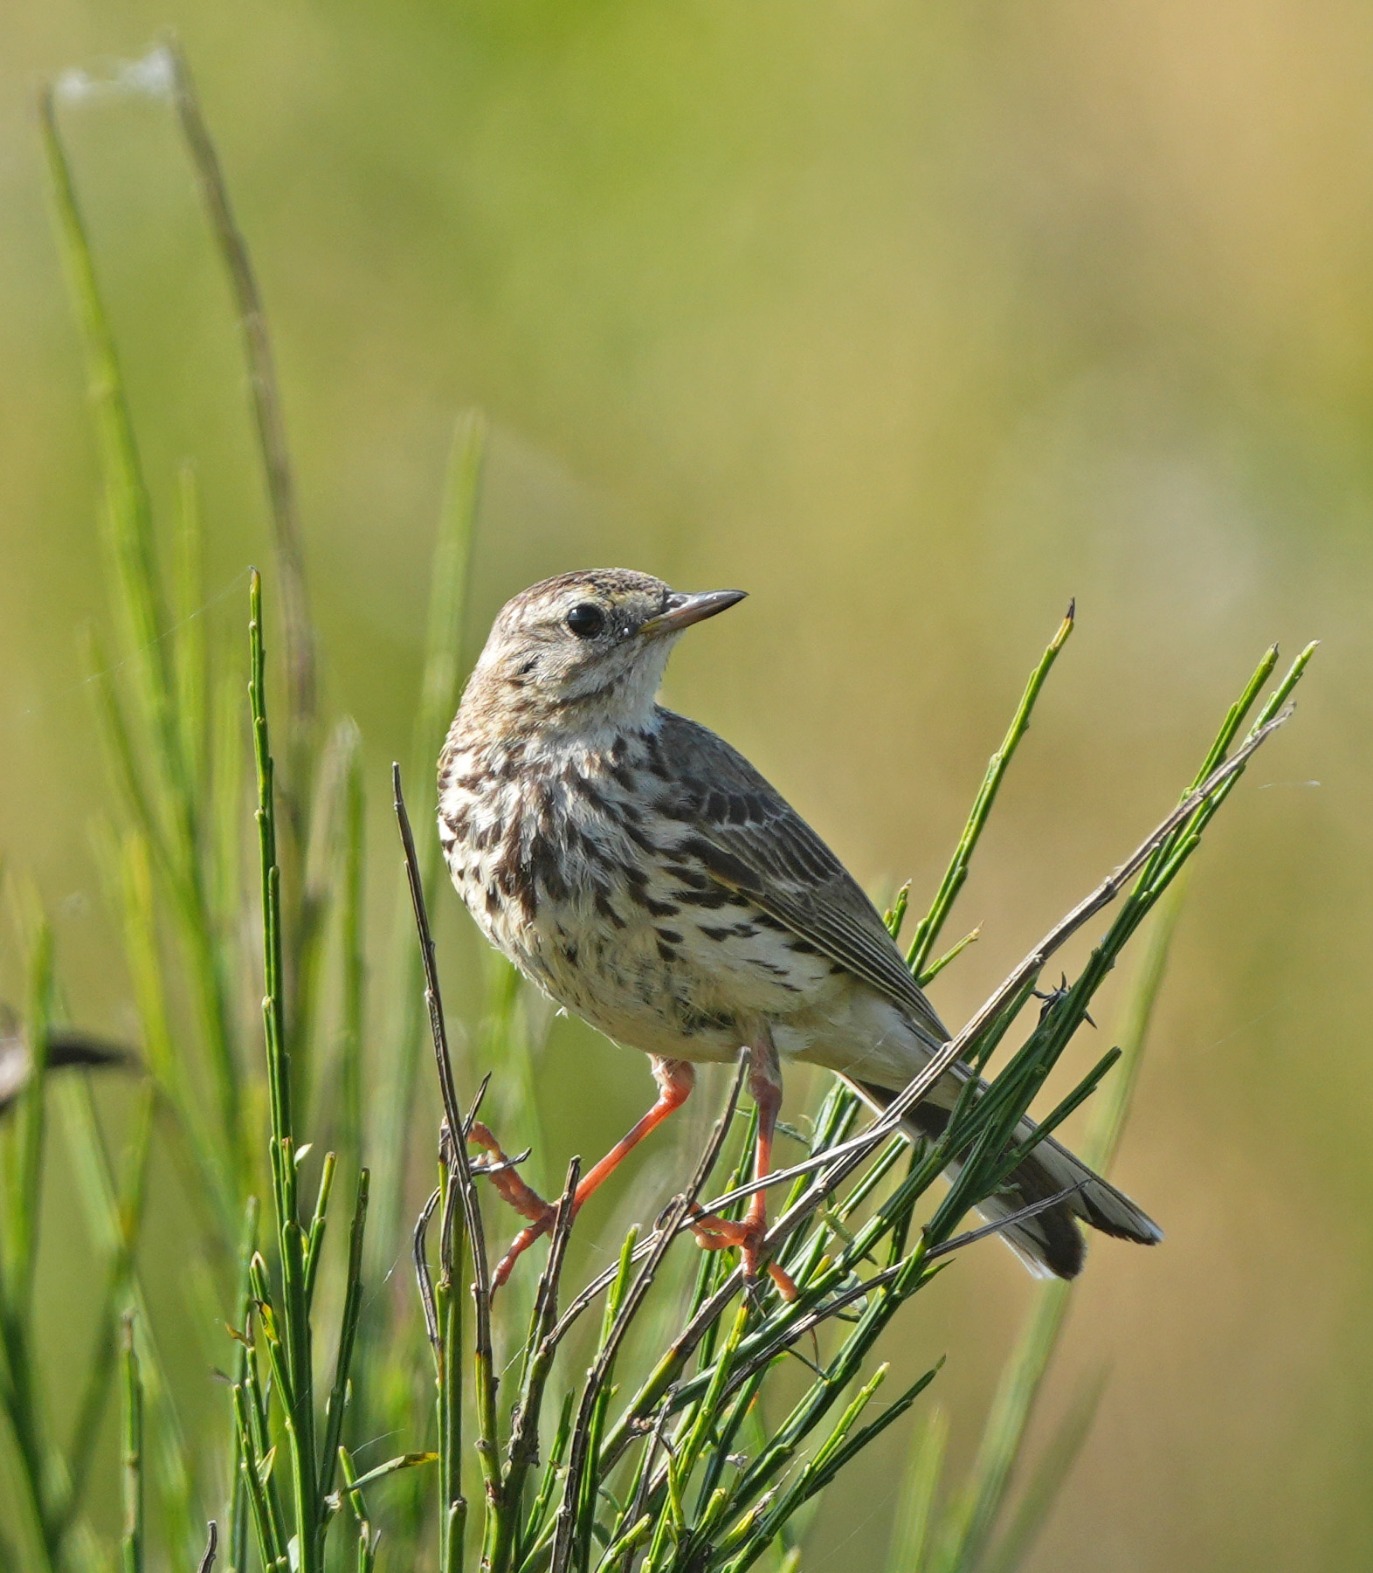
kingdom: Animalia
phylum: Chordata
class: Aves
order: Passeriformes
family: Motacillidae
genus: Anthus
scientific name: Anthus pratensis
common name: Engpiber
